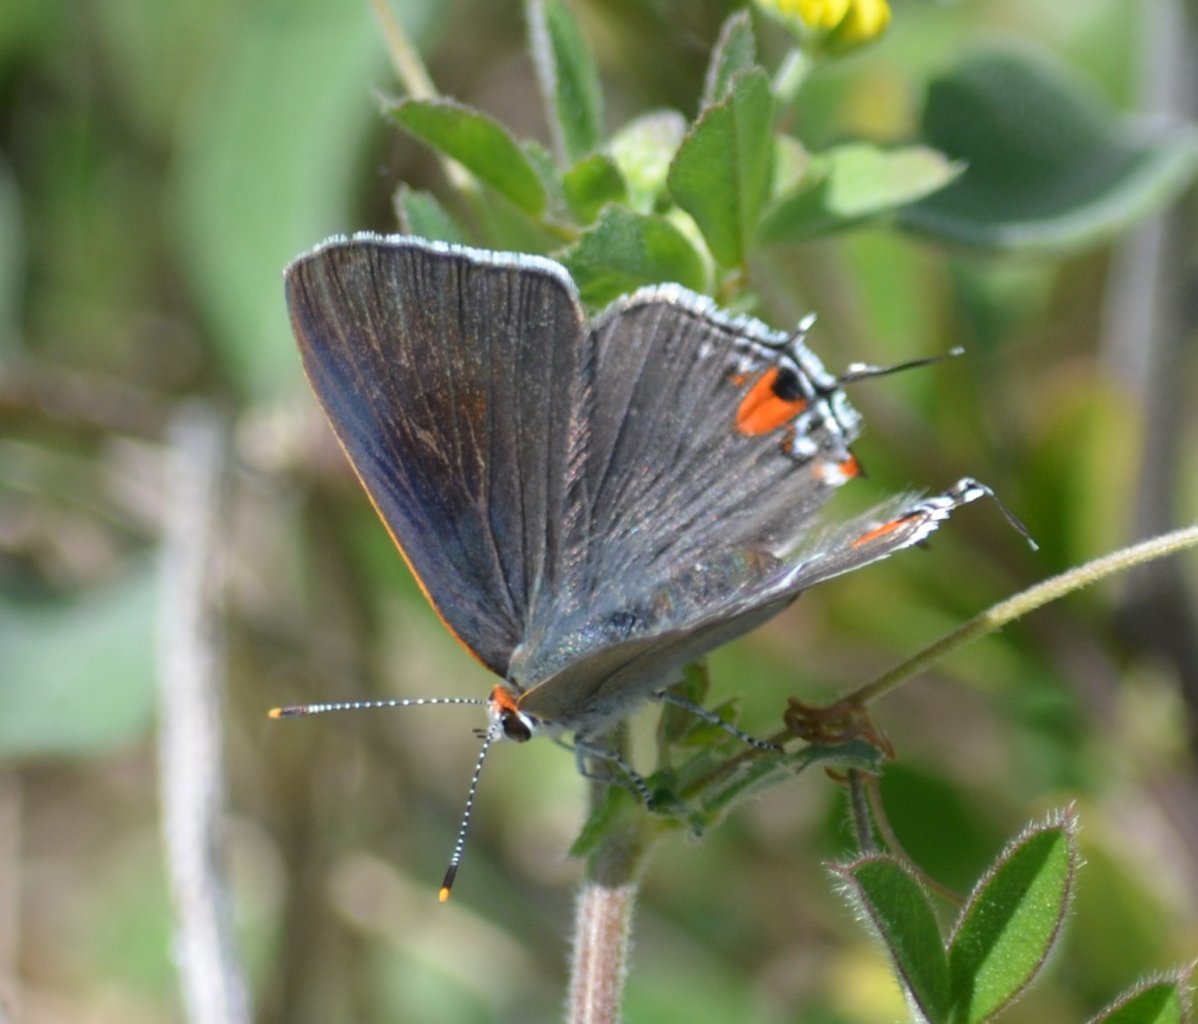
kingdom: Animalia
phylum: Arthropoda
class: Insecta
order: Lepidoptera
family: Lycaenidae
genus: Strymon
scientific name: Strymon melinus
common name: Gray Hairstreak
